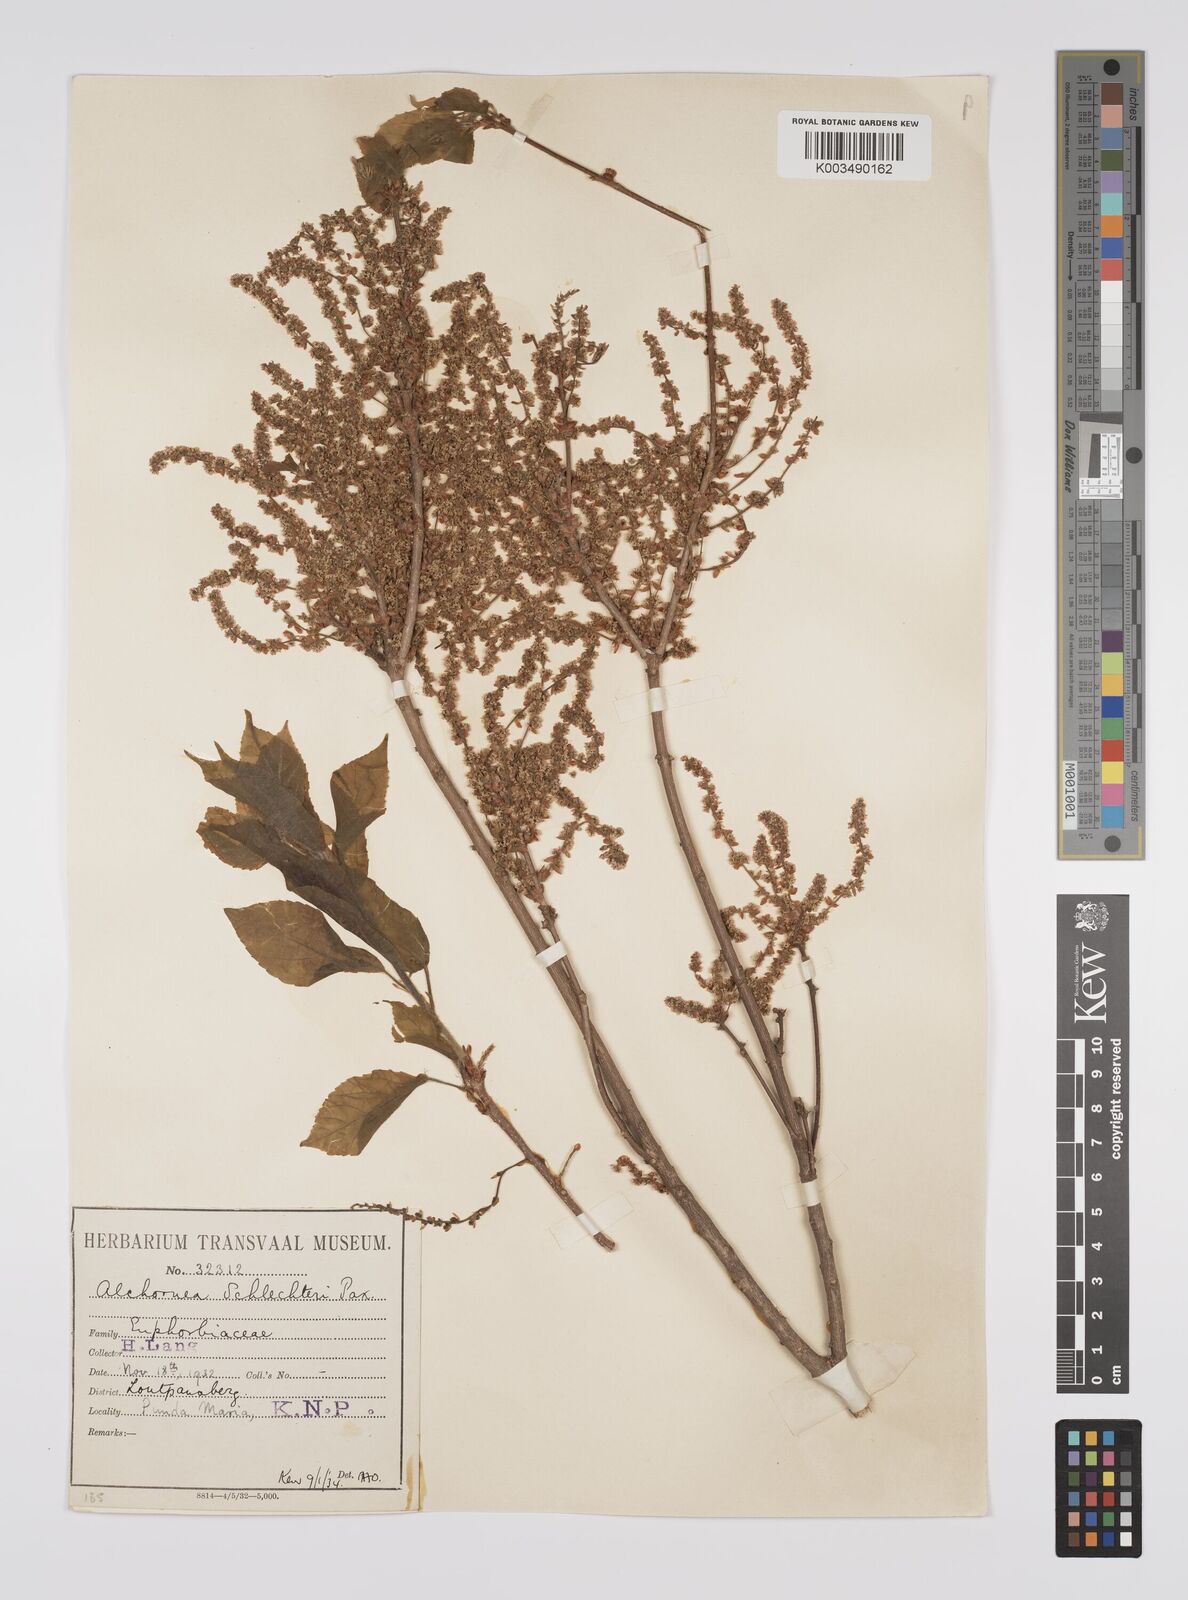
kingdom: Plantae
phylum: Tracheophyta
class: Magnoliopsida
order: Malpighiales
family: Euphorbiaceae
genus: Alchornea
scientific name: Alchornea laxiflora
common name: Lowveld bead-string
